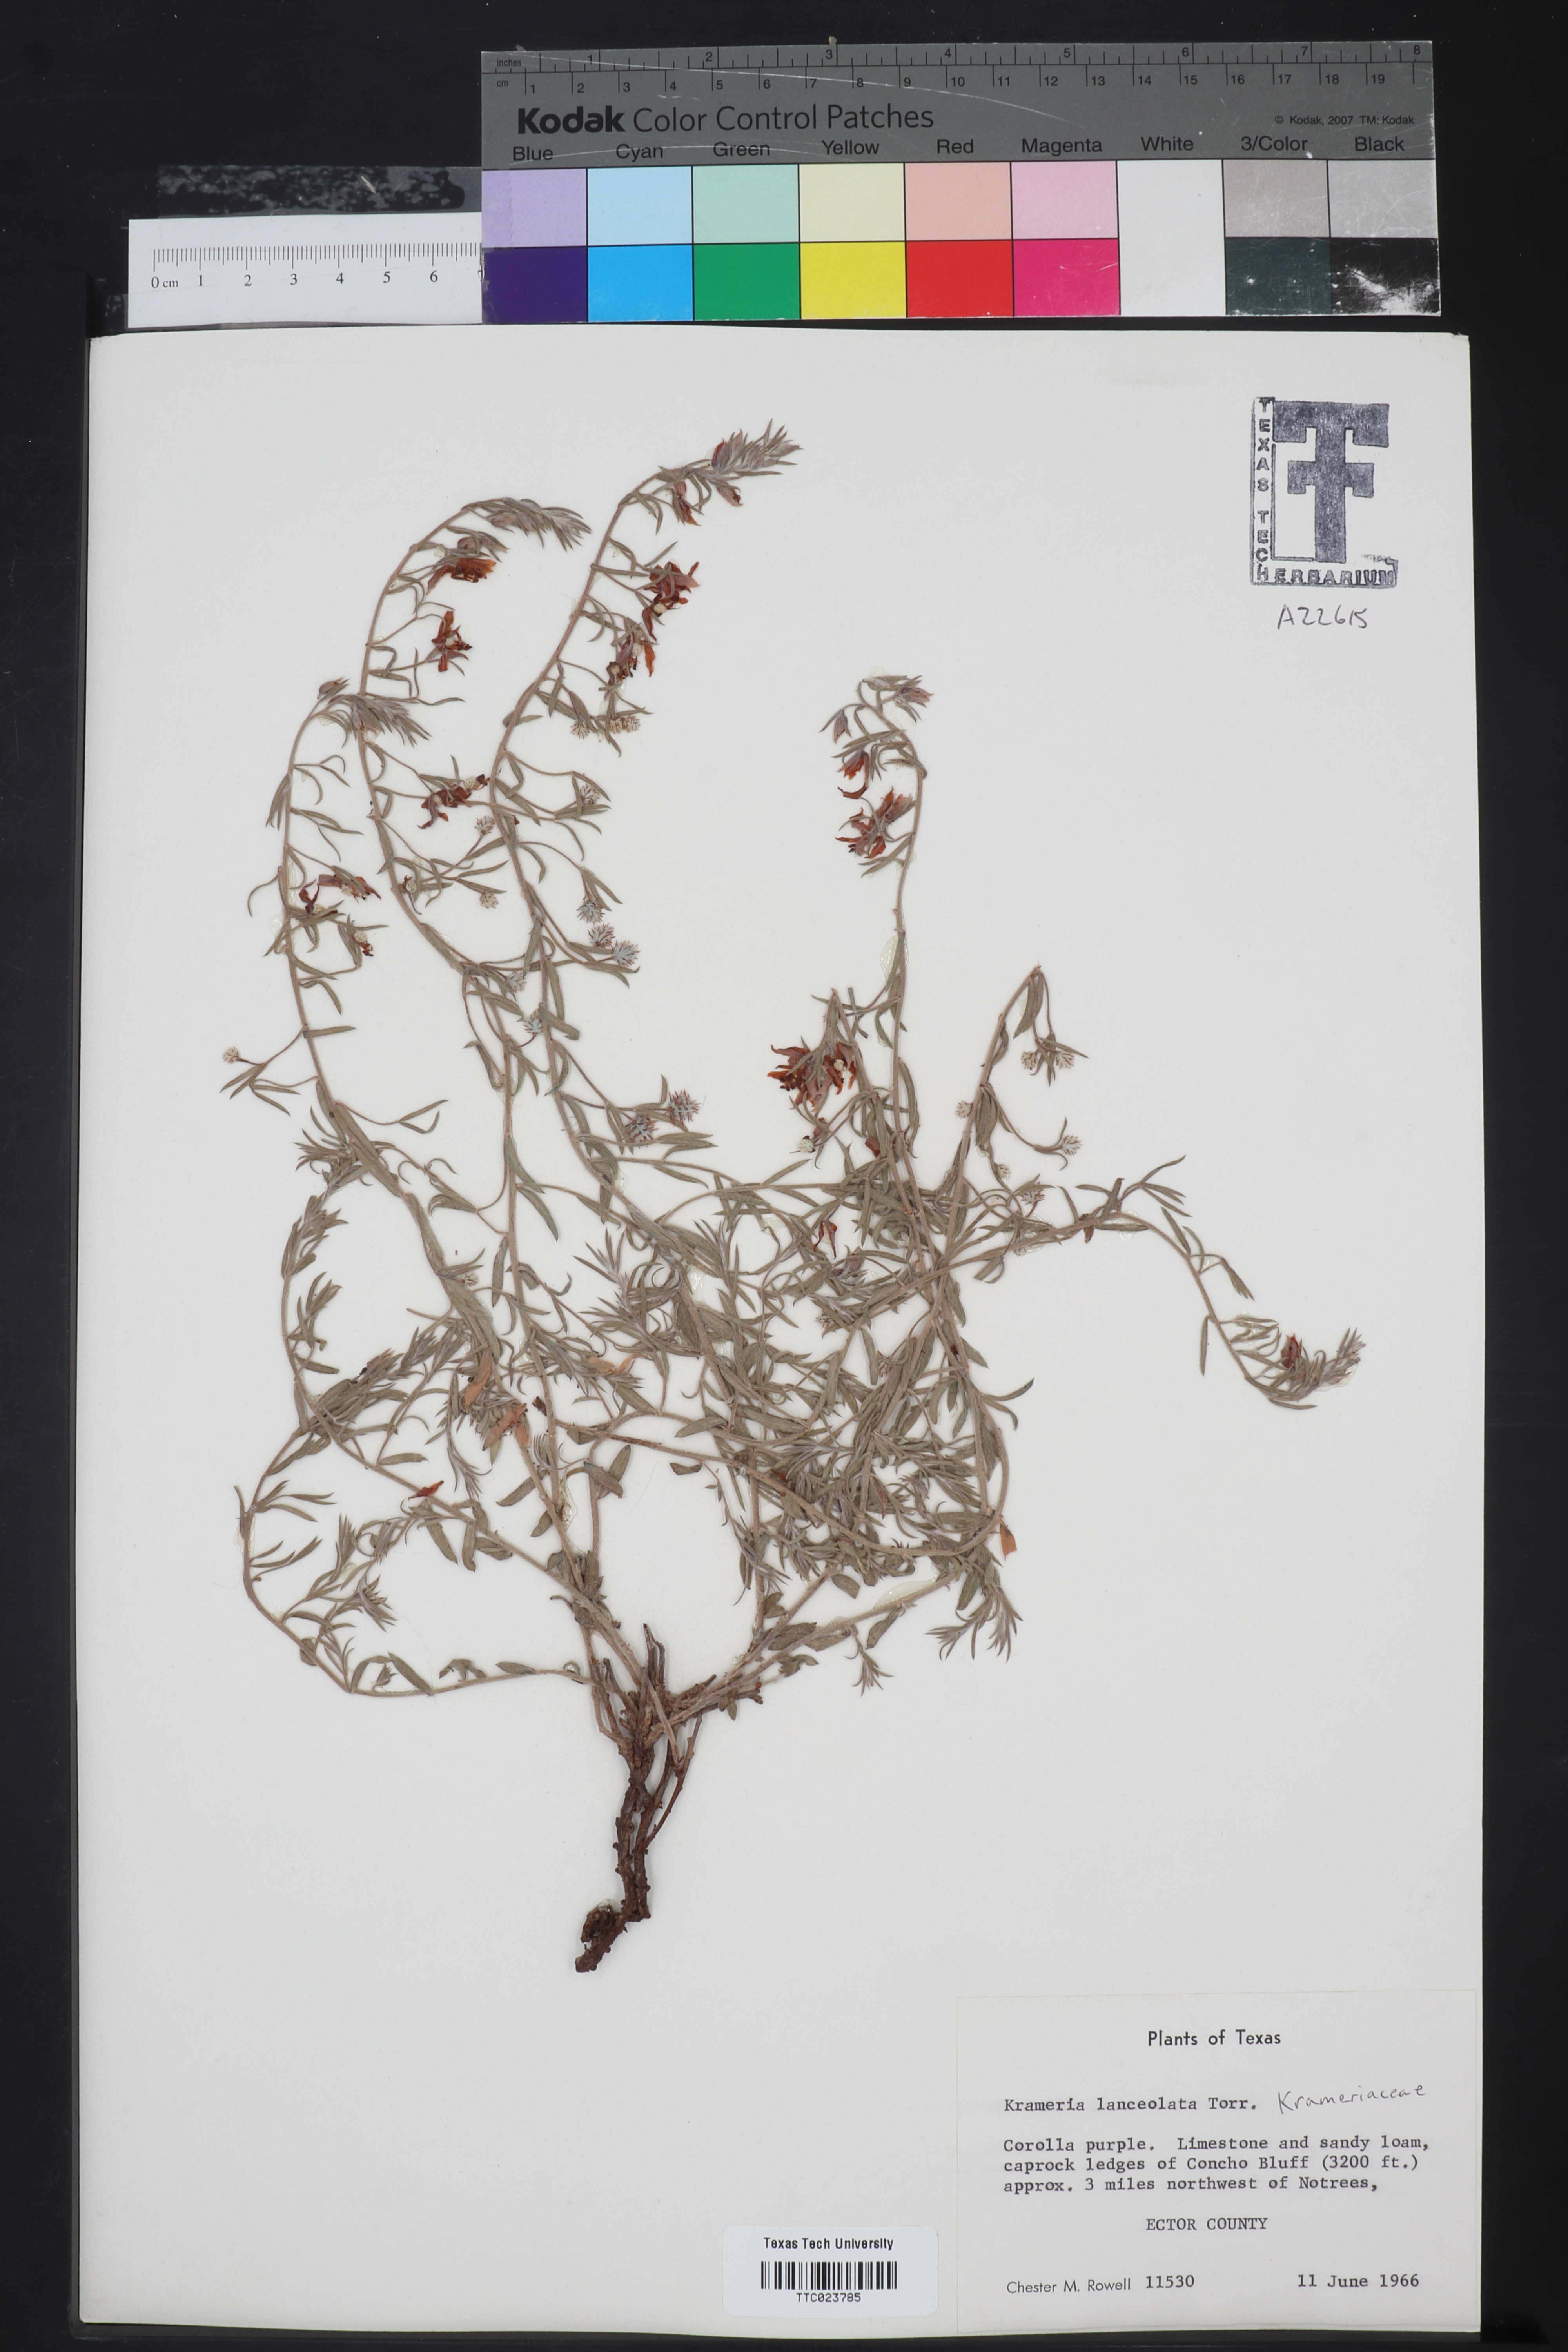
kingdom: Plantae
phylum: Tracheophyta
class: Magnoliopsida
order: Zygophyllales
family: Krameriaceae
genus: Krameria
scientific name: Krameria lanceolata
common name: Ratany
